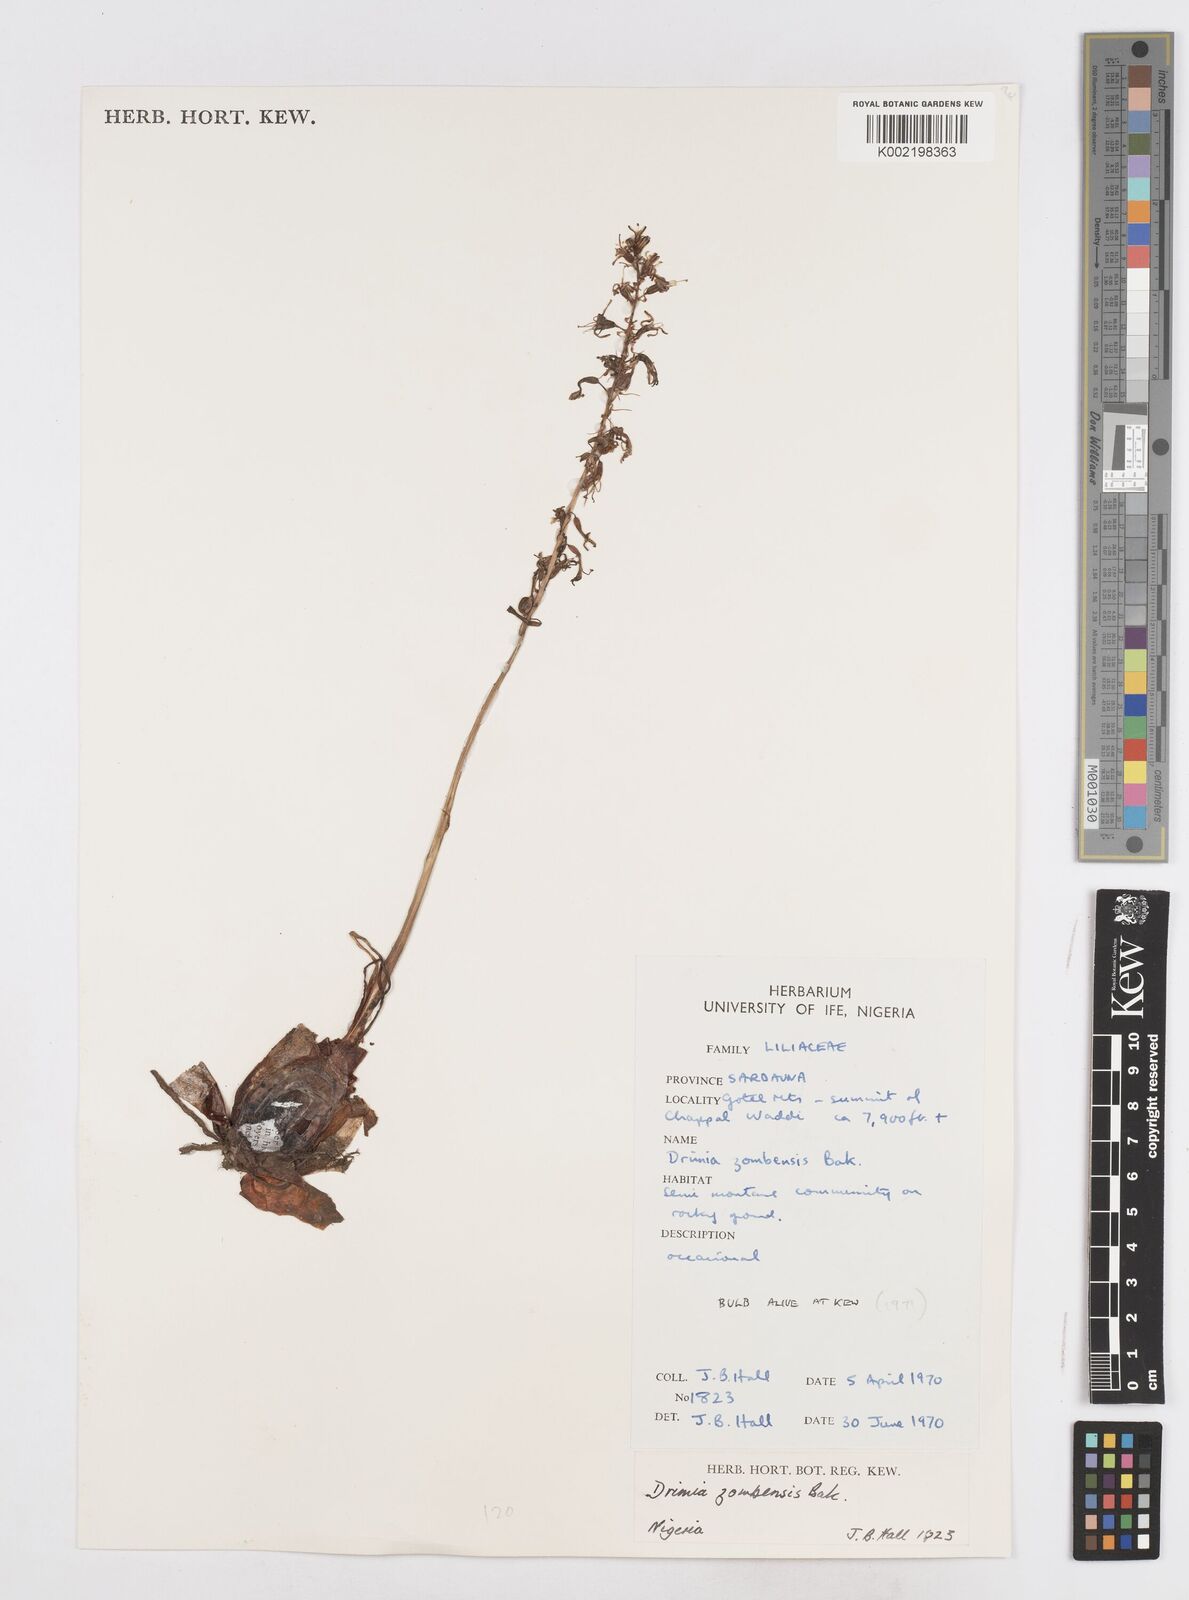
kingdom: Plantae
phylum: Tracheophyta
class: Liliopsida
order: Asparagales
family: Asparagaceae
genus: Drimia
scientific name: Drimia elata
